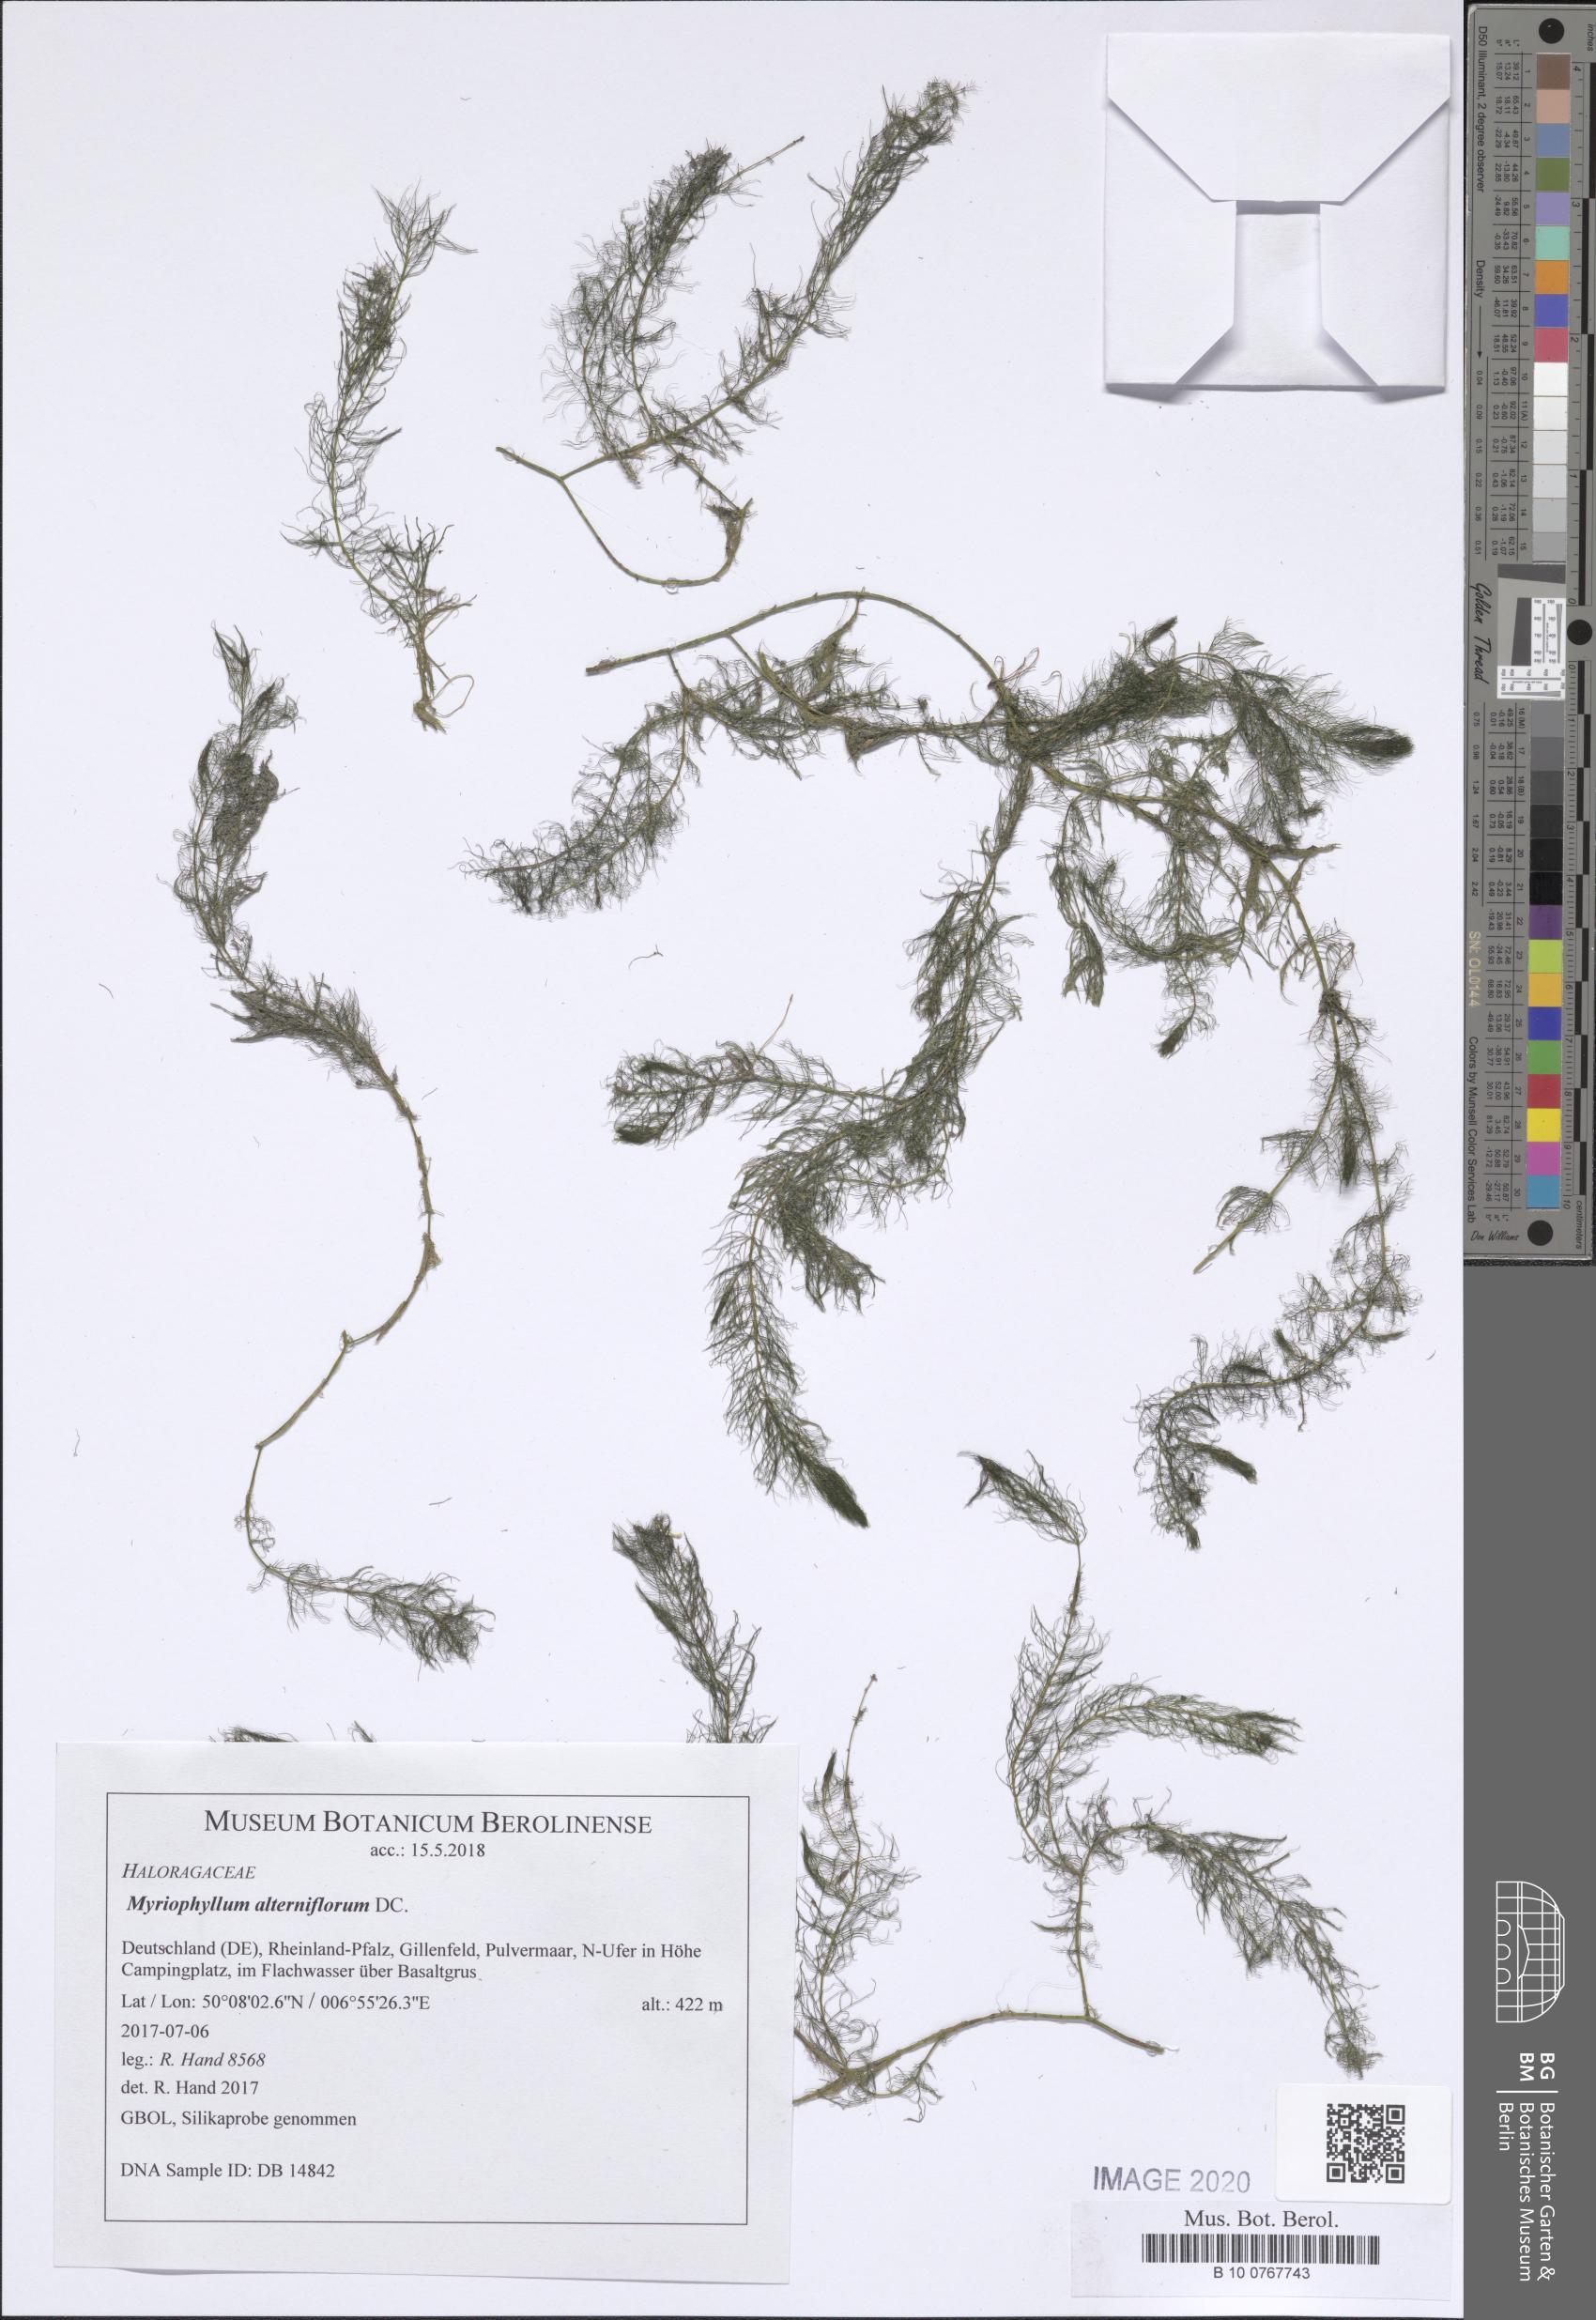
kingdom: Plantae
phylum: Tracheophyta
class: Magnoliopsida
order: Saxifragales
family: Haloragaceae
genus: Myriophyllum
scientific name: Myriophyllum alterniflorum
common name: Alternate water-milfoil
